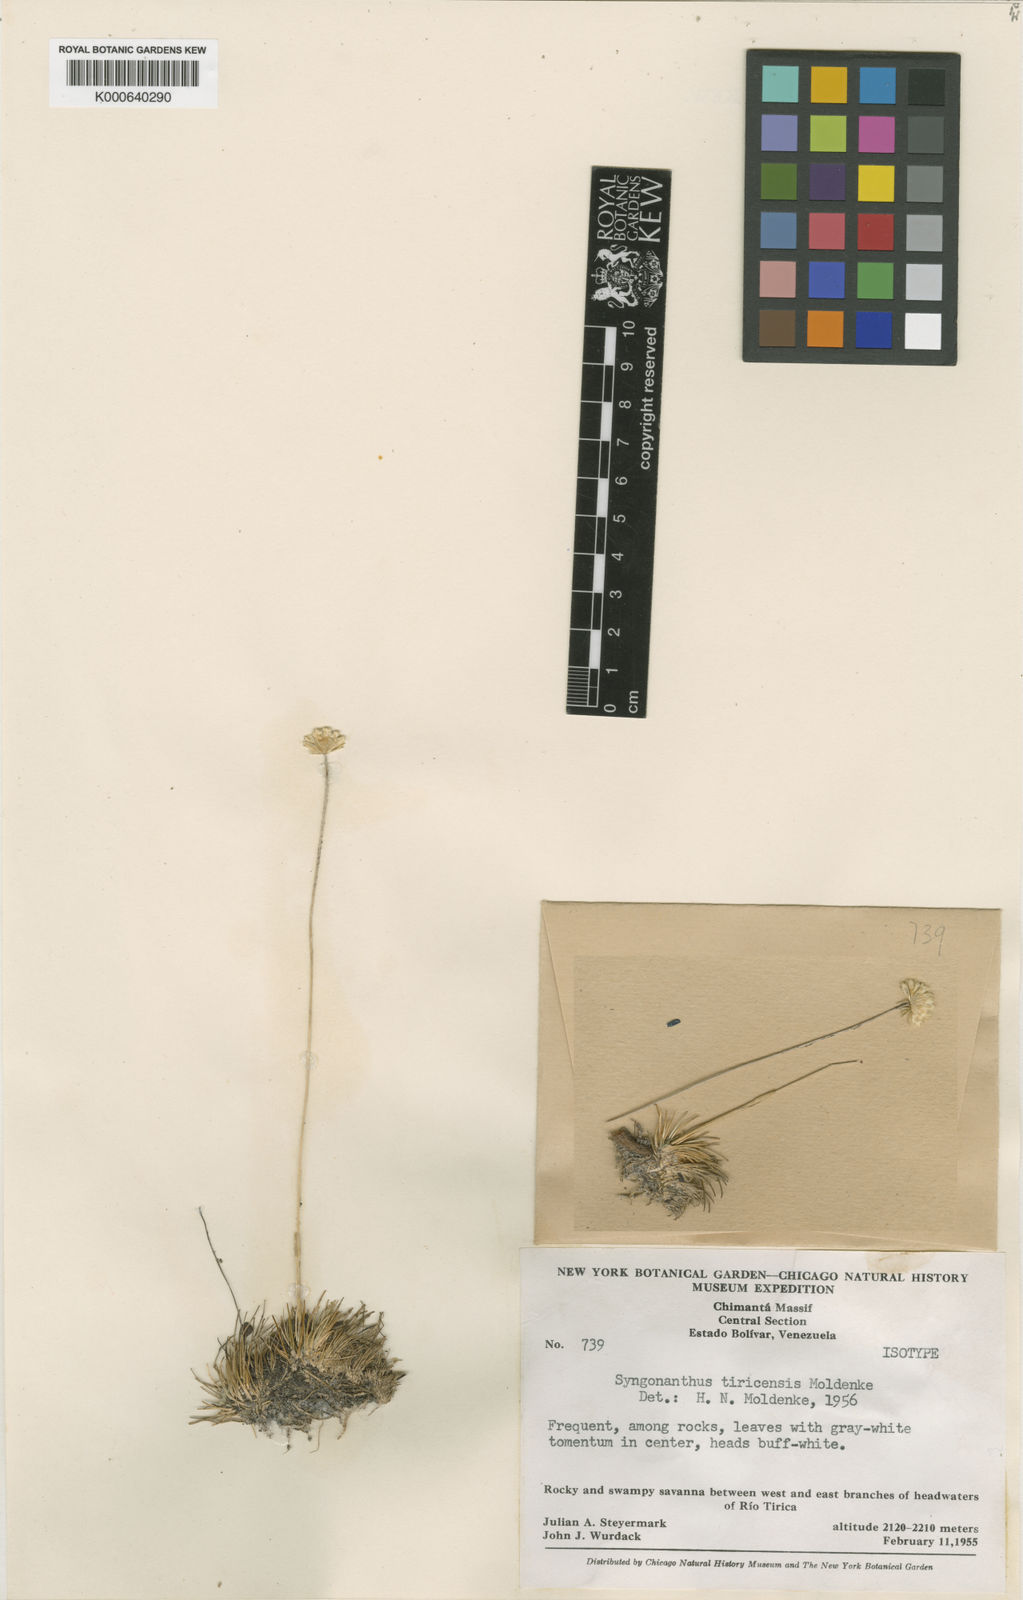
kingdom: Plantae
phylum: Tracheophyta
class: Liliopsida
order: Poales
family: Eriocaulaceae
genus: Syngonanthus
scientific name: Syngonanthus tiricensis
